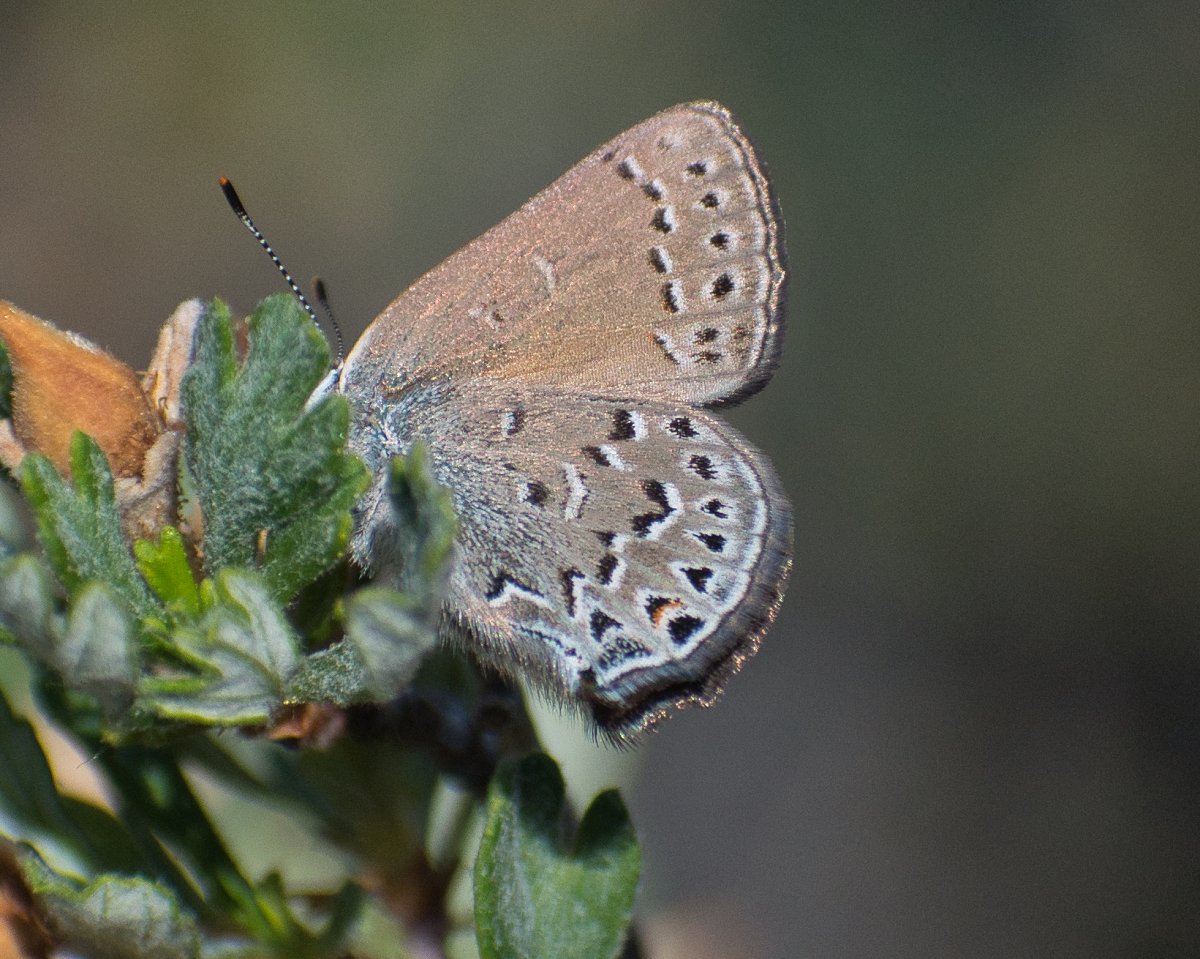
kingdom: Animalia
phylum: Arthropoda
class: Insecta
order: Lepidoptera
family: Lycaenidae
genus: Satyrium
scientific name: Satyrium behrii
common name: Behr's Hairstreak
